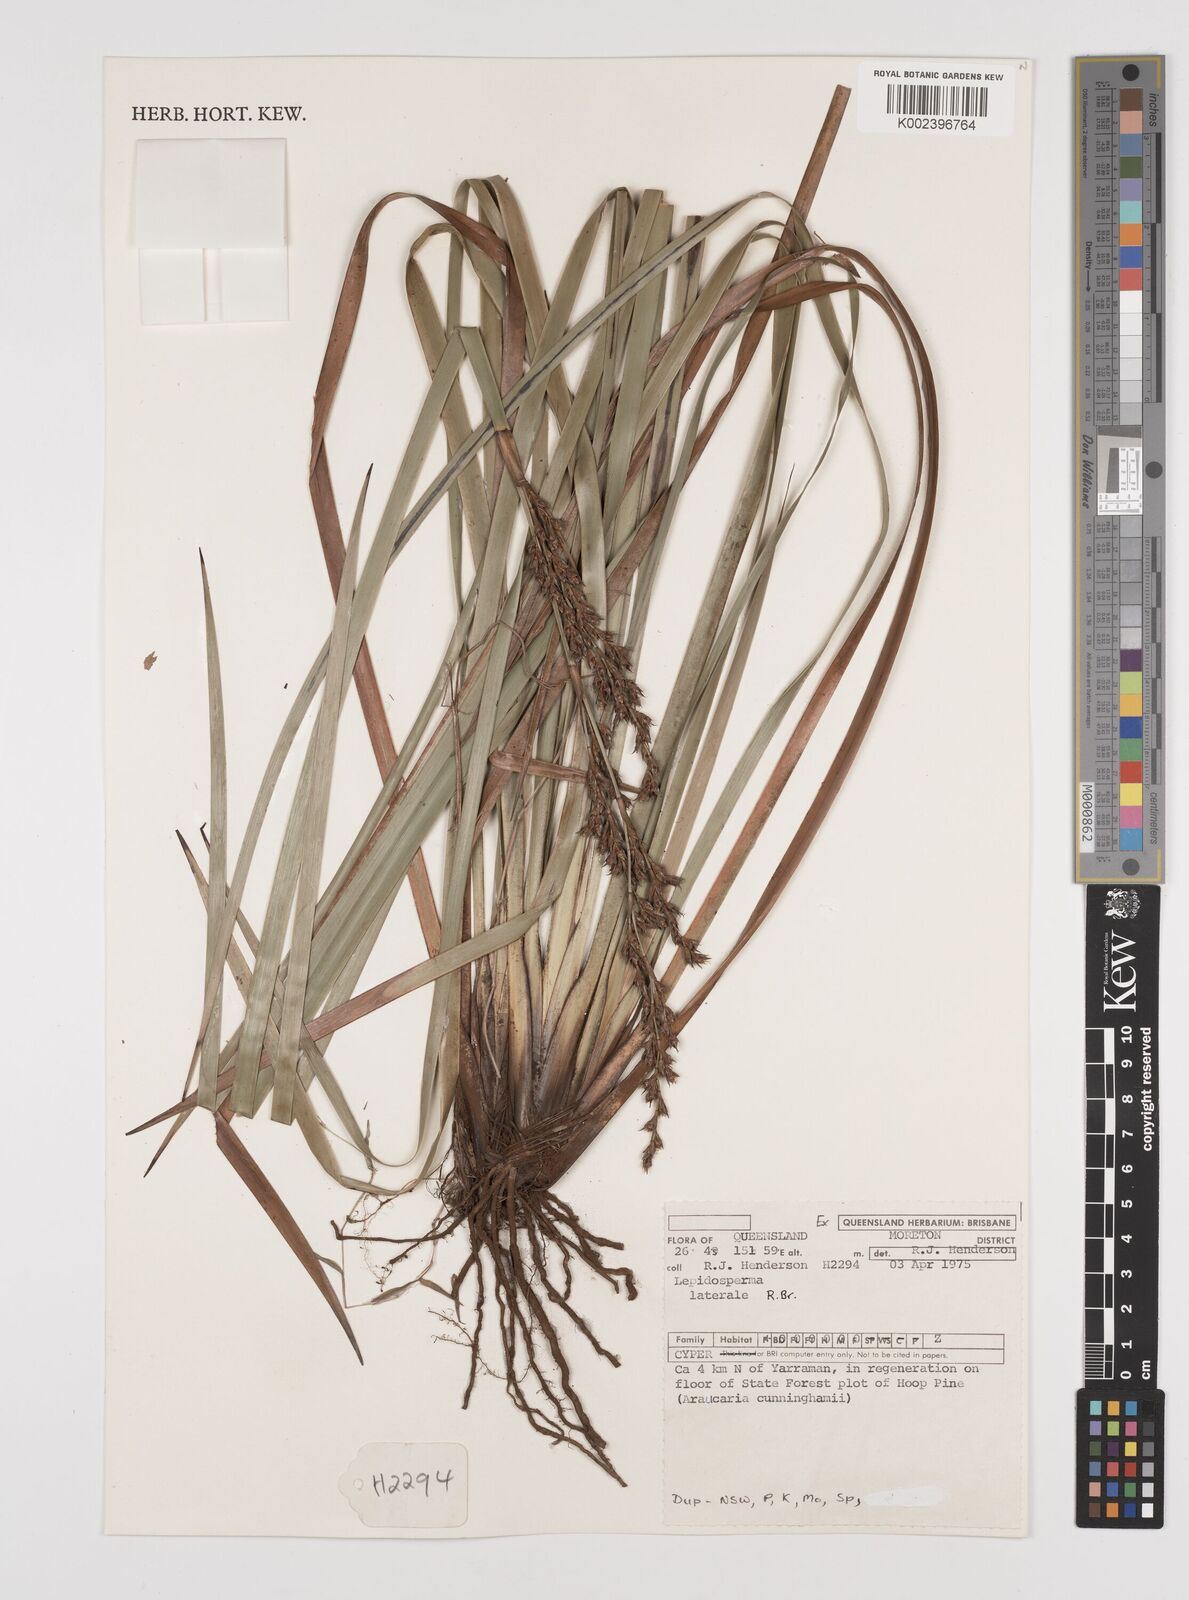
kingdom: Plantae
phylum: Tracheophyta
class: Liliopsida
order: Poales
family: Cyperaceae
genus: Lepidosperma
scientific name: Lepidosperma laterale
